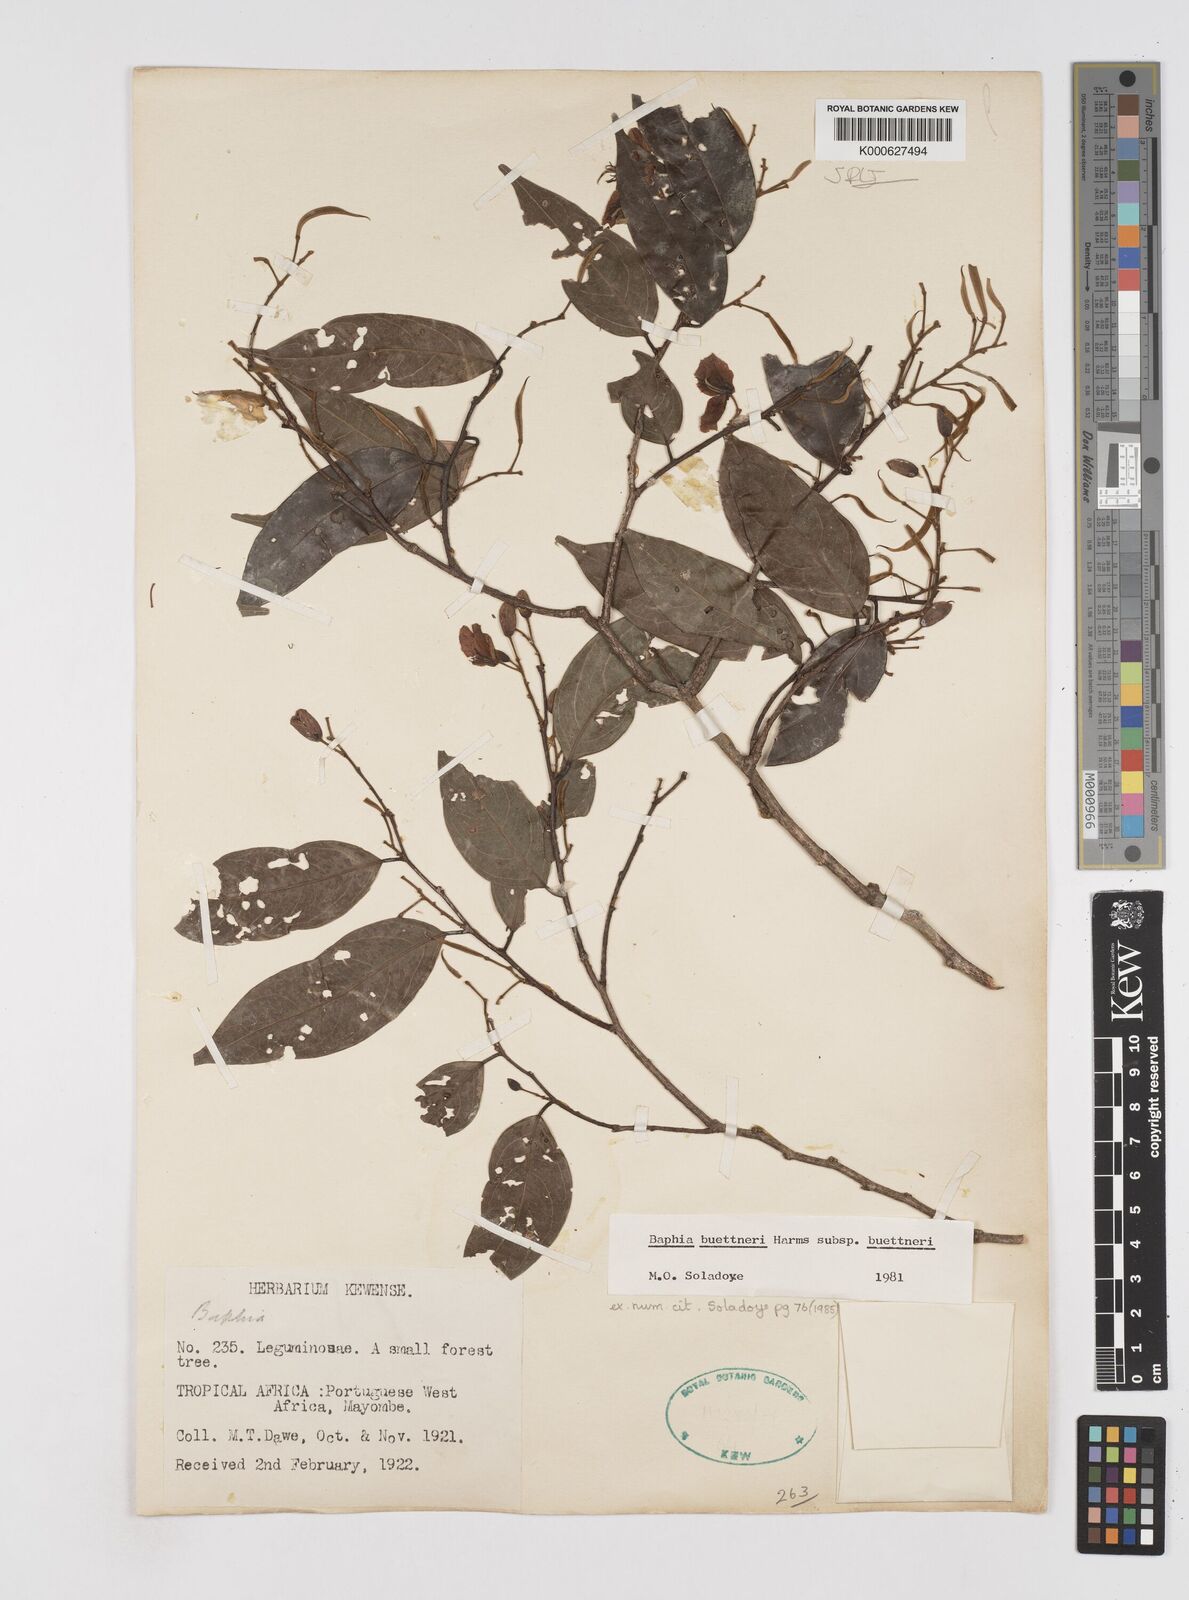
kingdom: Plantae
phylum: Tracheophyta
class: Magnoliopsida
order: Fabales
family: Fabaceae
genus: Baphia
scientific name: Baphia
